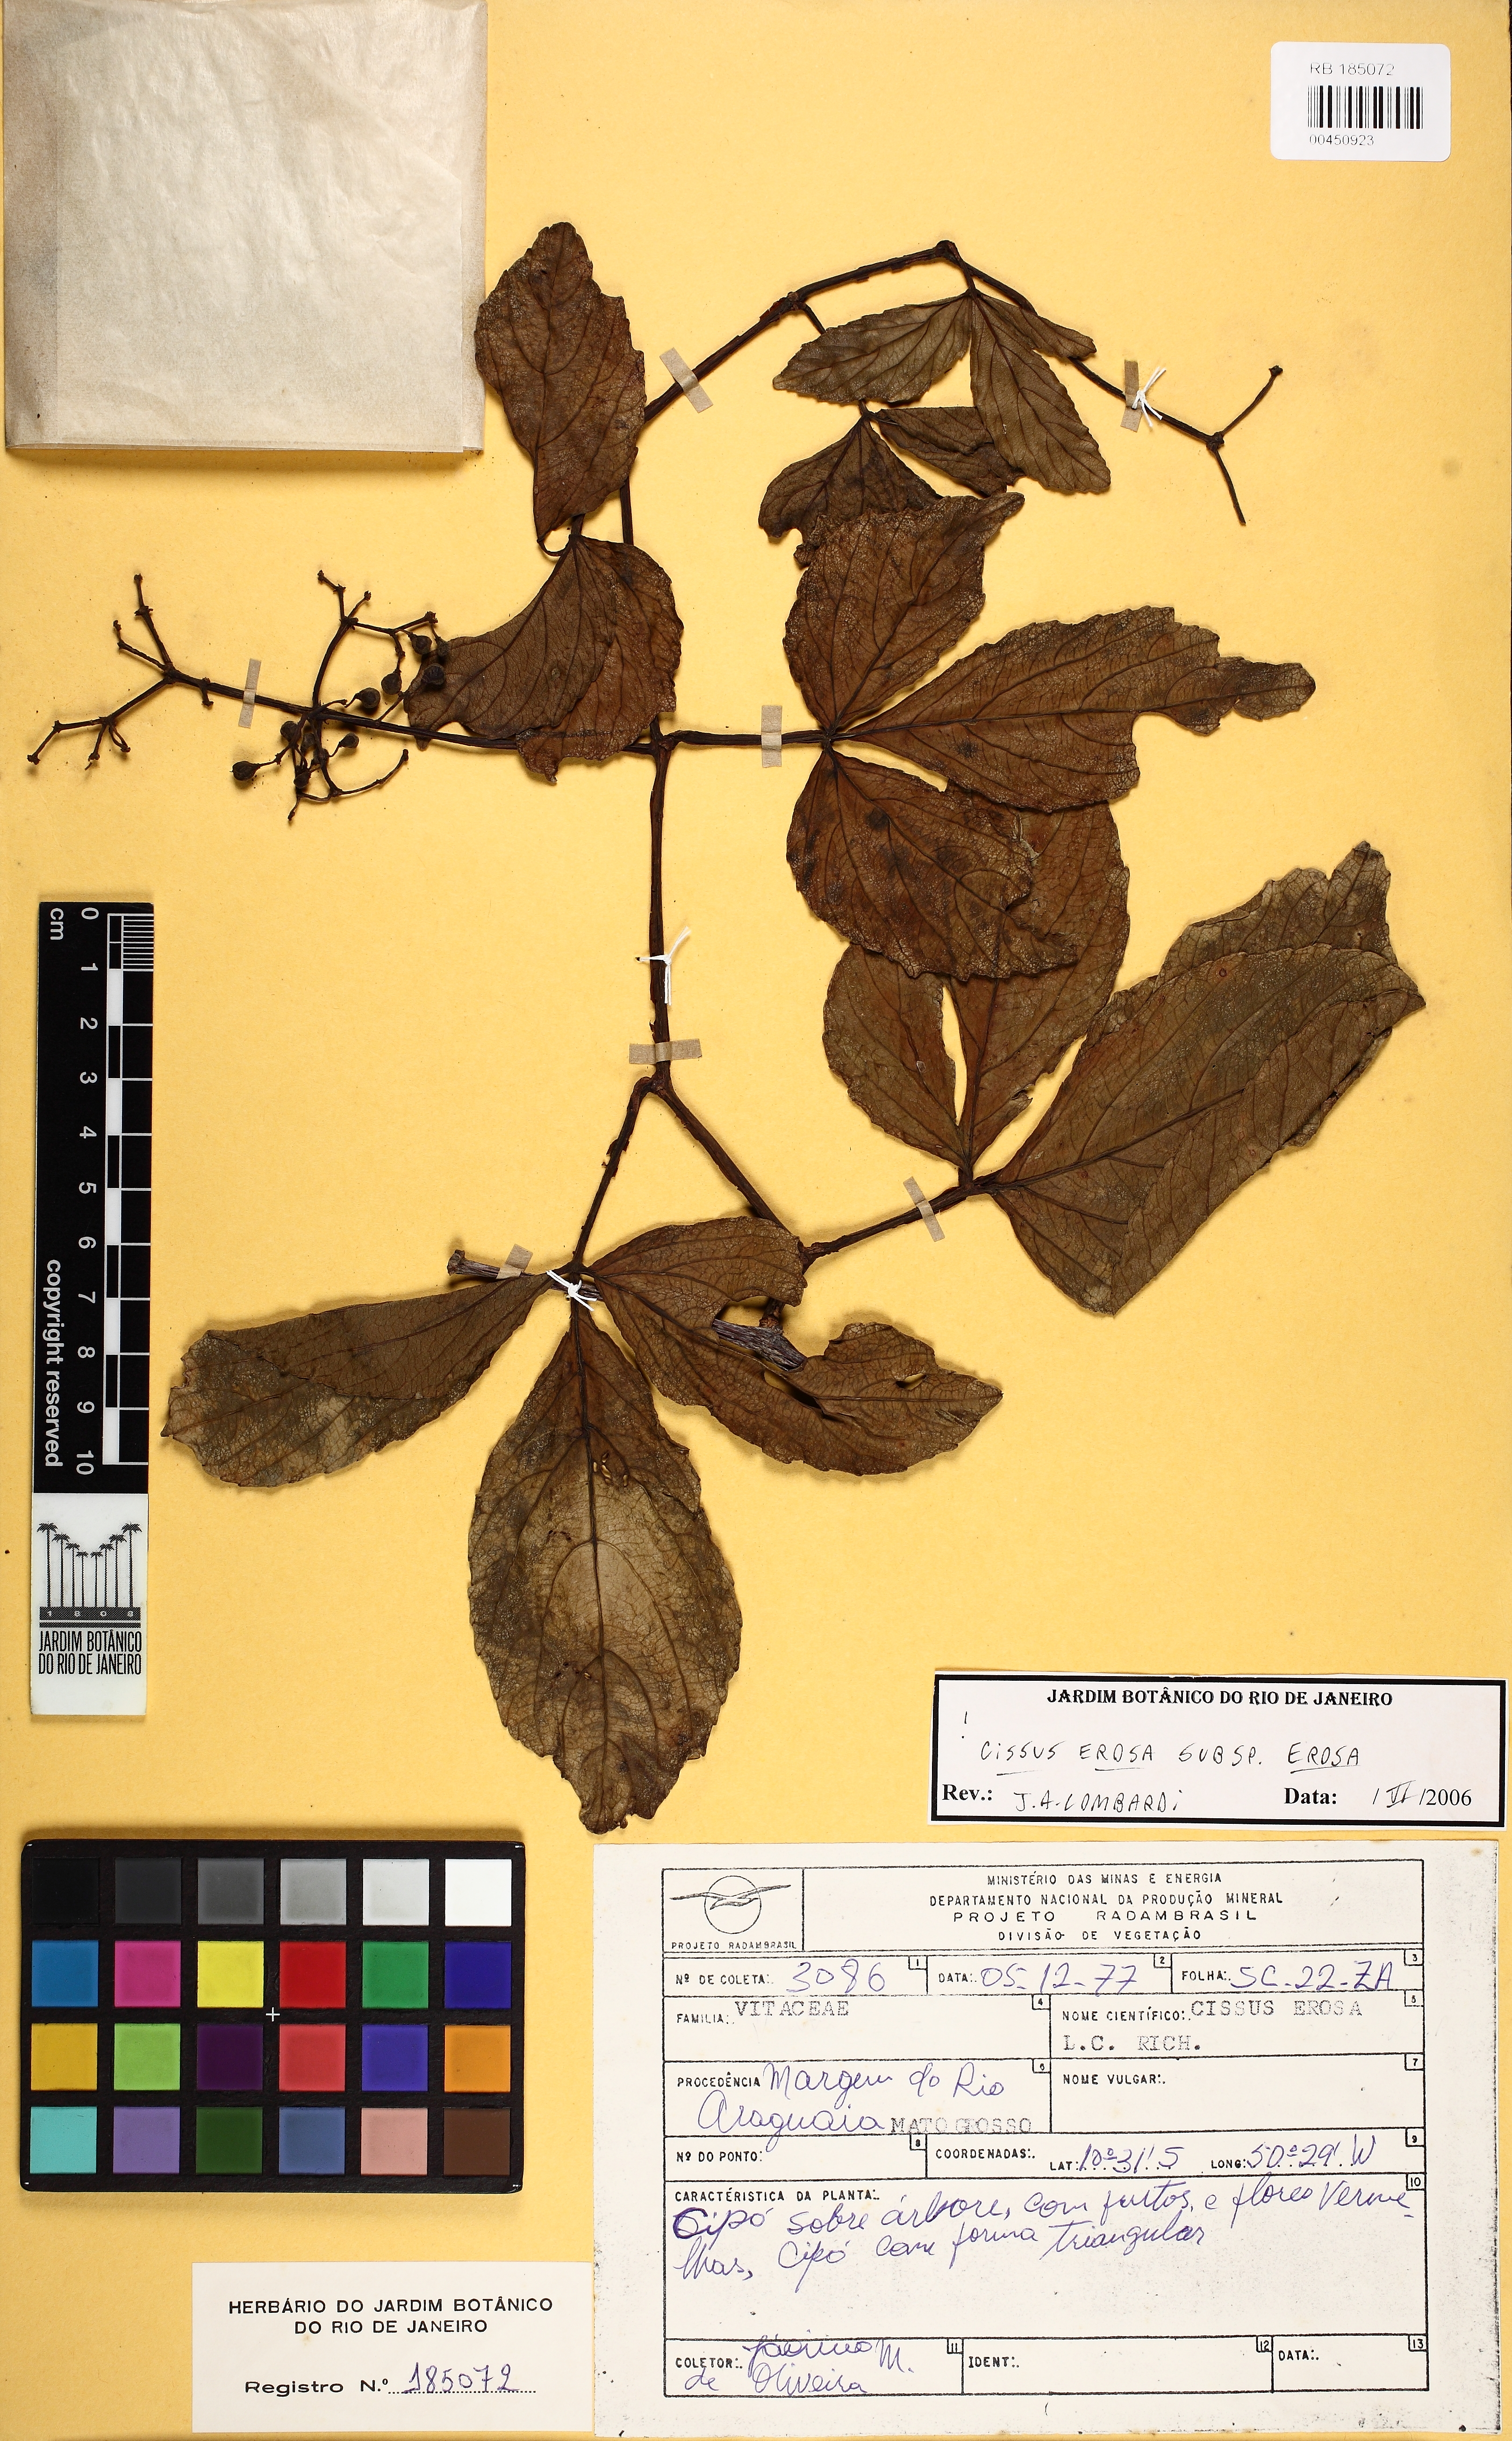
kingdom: Plantae
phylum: Tracheophyta
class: Magnoliopsida
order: Vitales
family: Vitaceae
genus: Cissus
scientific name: Cissus erosa
